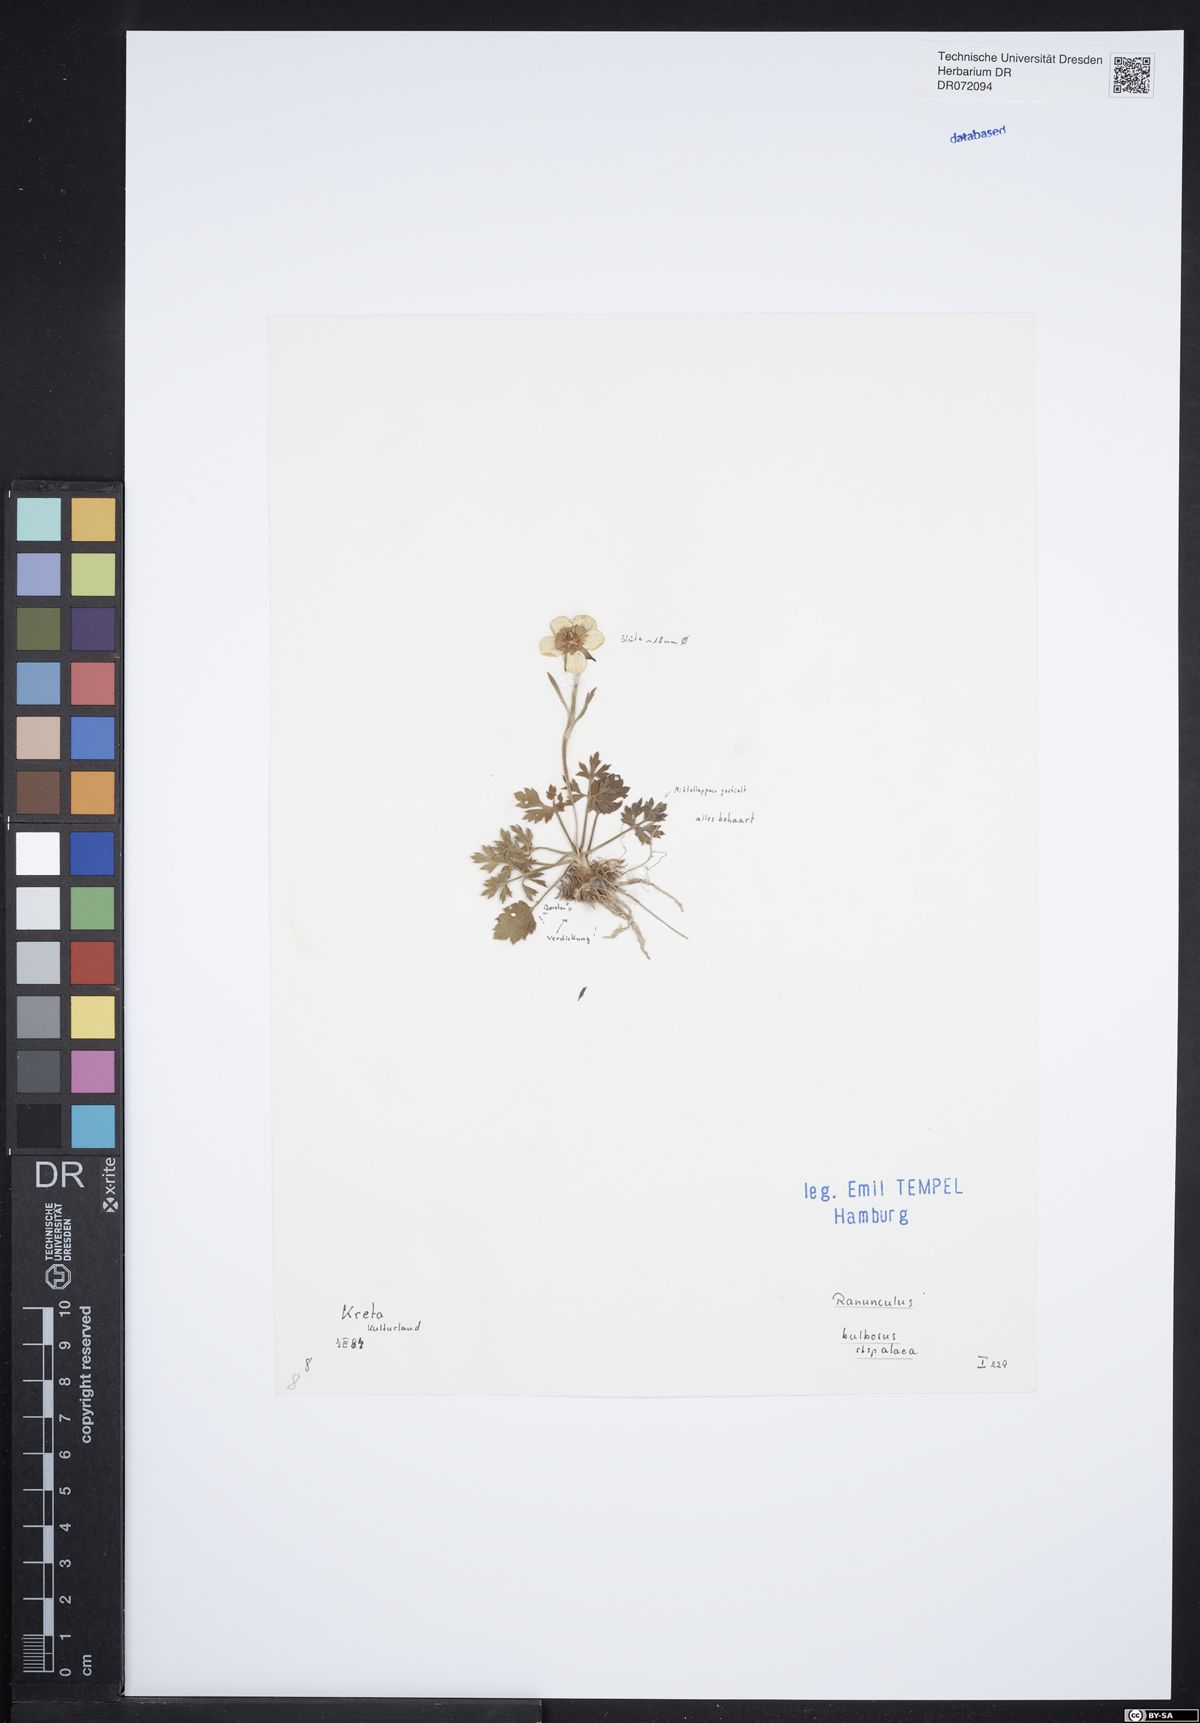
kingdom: Plantae
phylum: Tracheophyta
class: Magnoliopsida
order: Ranunculales
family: Ranunculaceae
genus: Ranunculus
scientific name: Ranunculus neapolitanus
